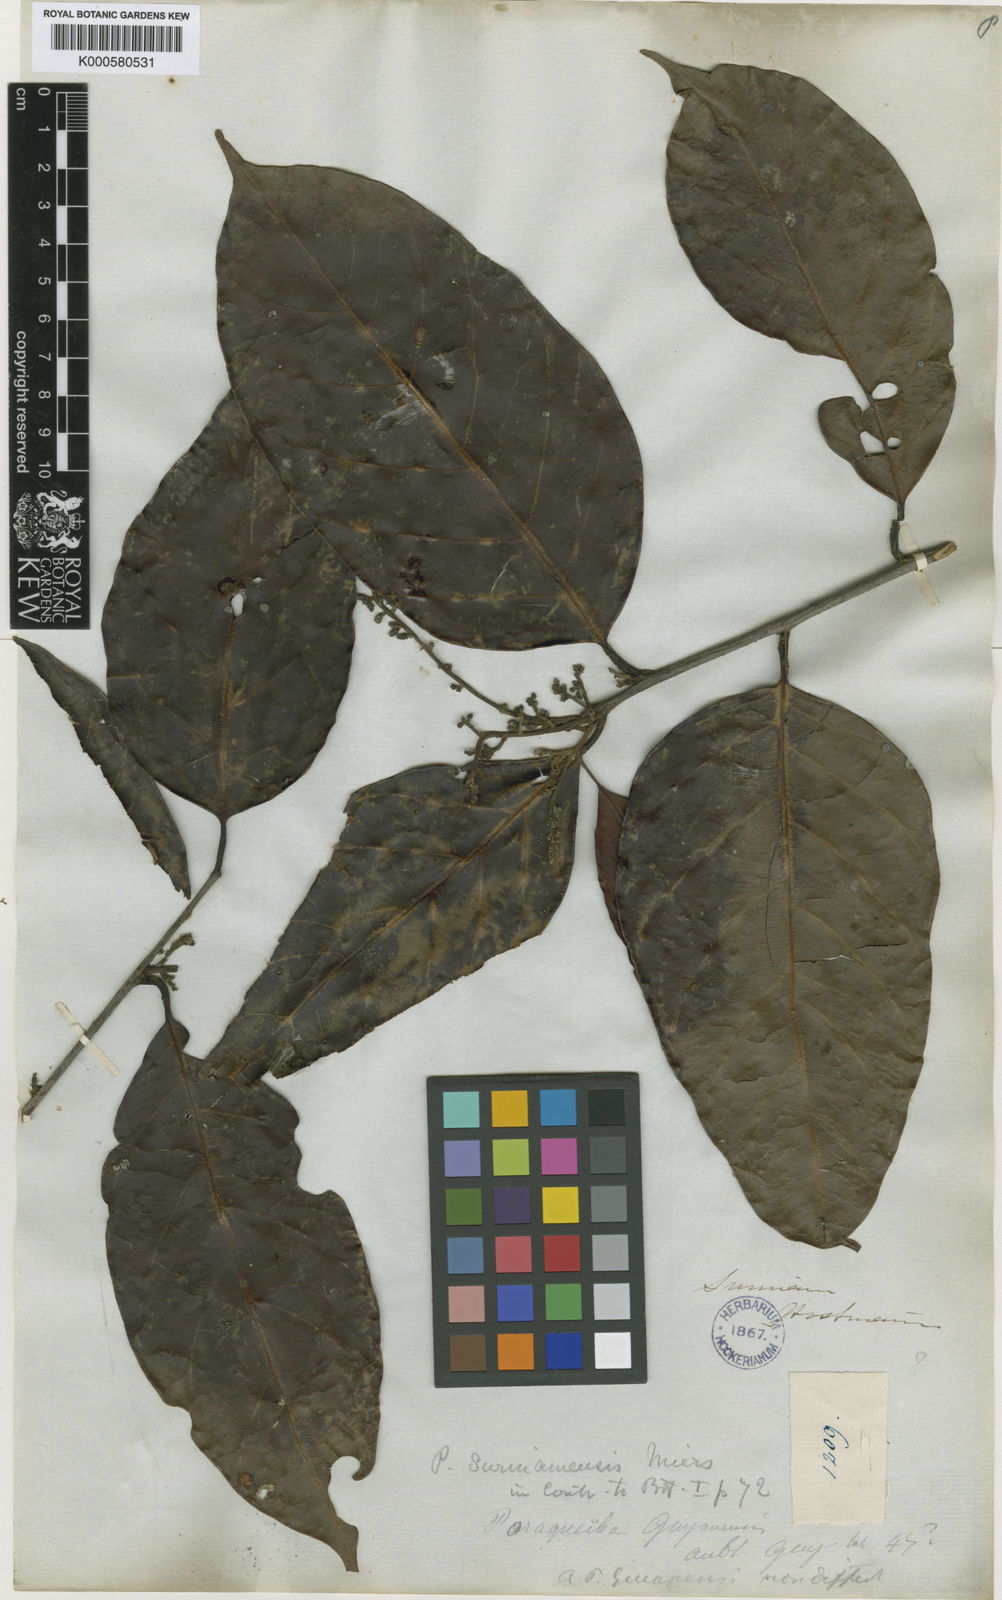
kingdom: Plantae
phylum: Tracheophyta
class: Magnoliopsida
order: Metteniusales
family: Metteniusaceae
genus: Poraqueiba
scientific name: Poraqueiba guianensis
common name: Umari-sauvage
